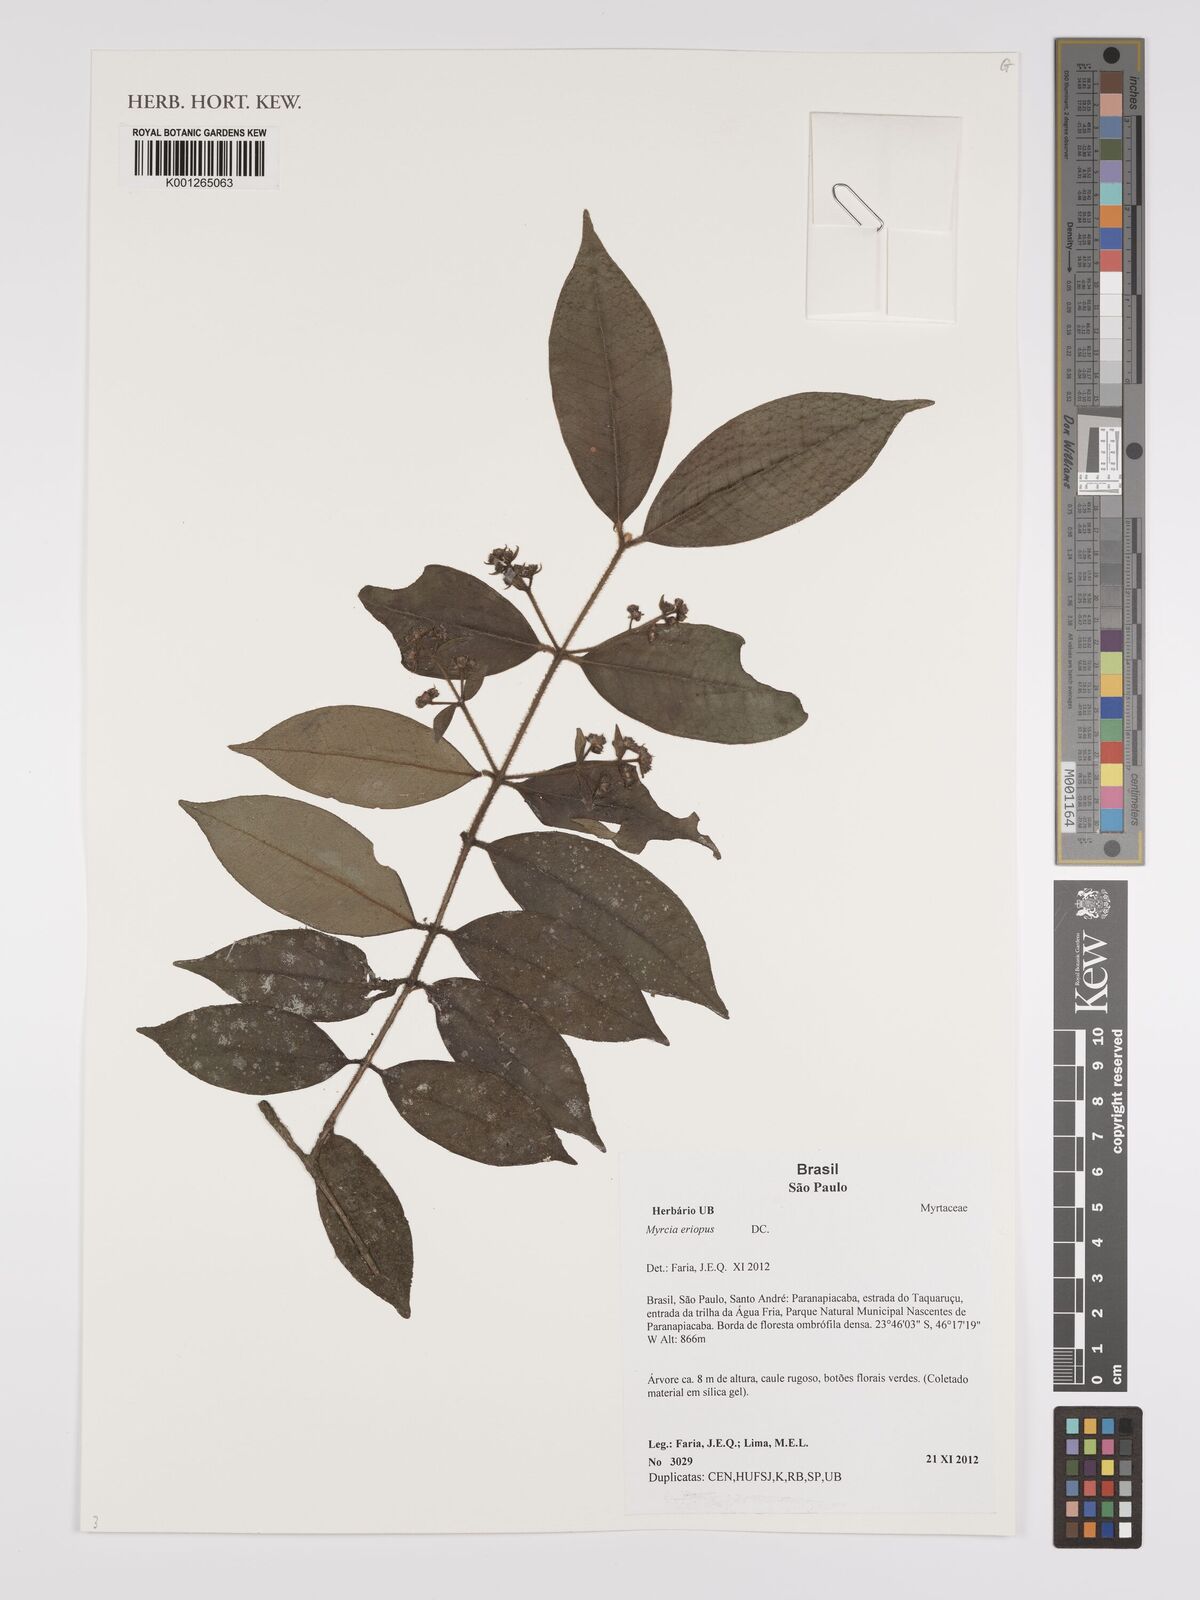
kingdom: Plantae
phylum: Tracheophyta
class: Magnoliopsida
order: Myrtales
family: Myrtaceae
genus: Myrcia
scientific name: Myrcia eriopus
